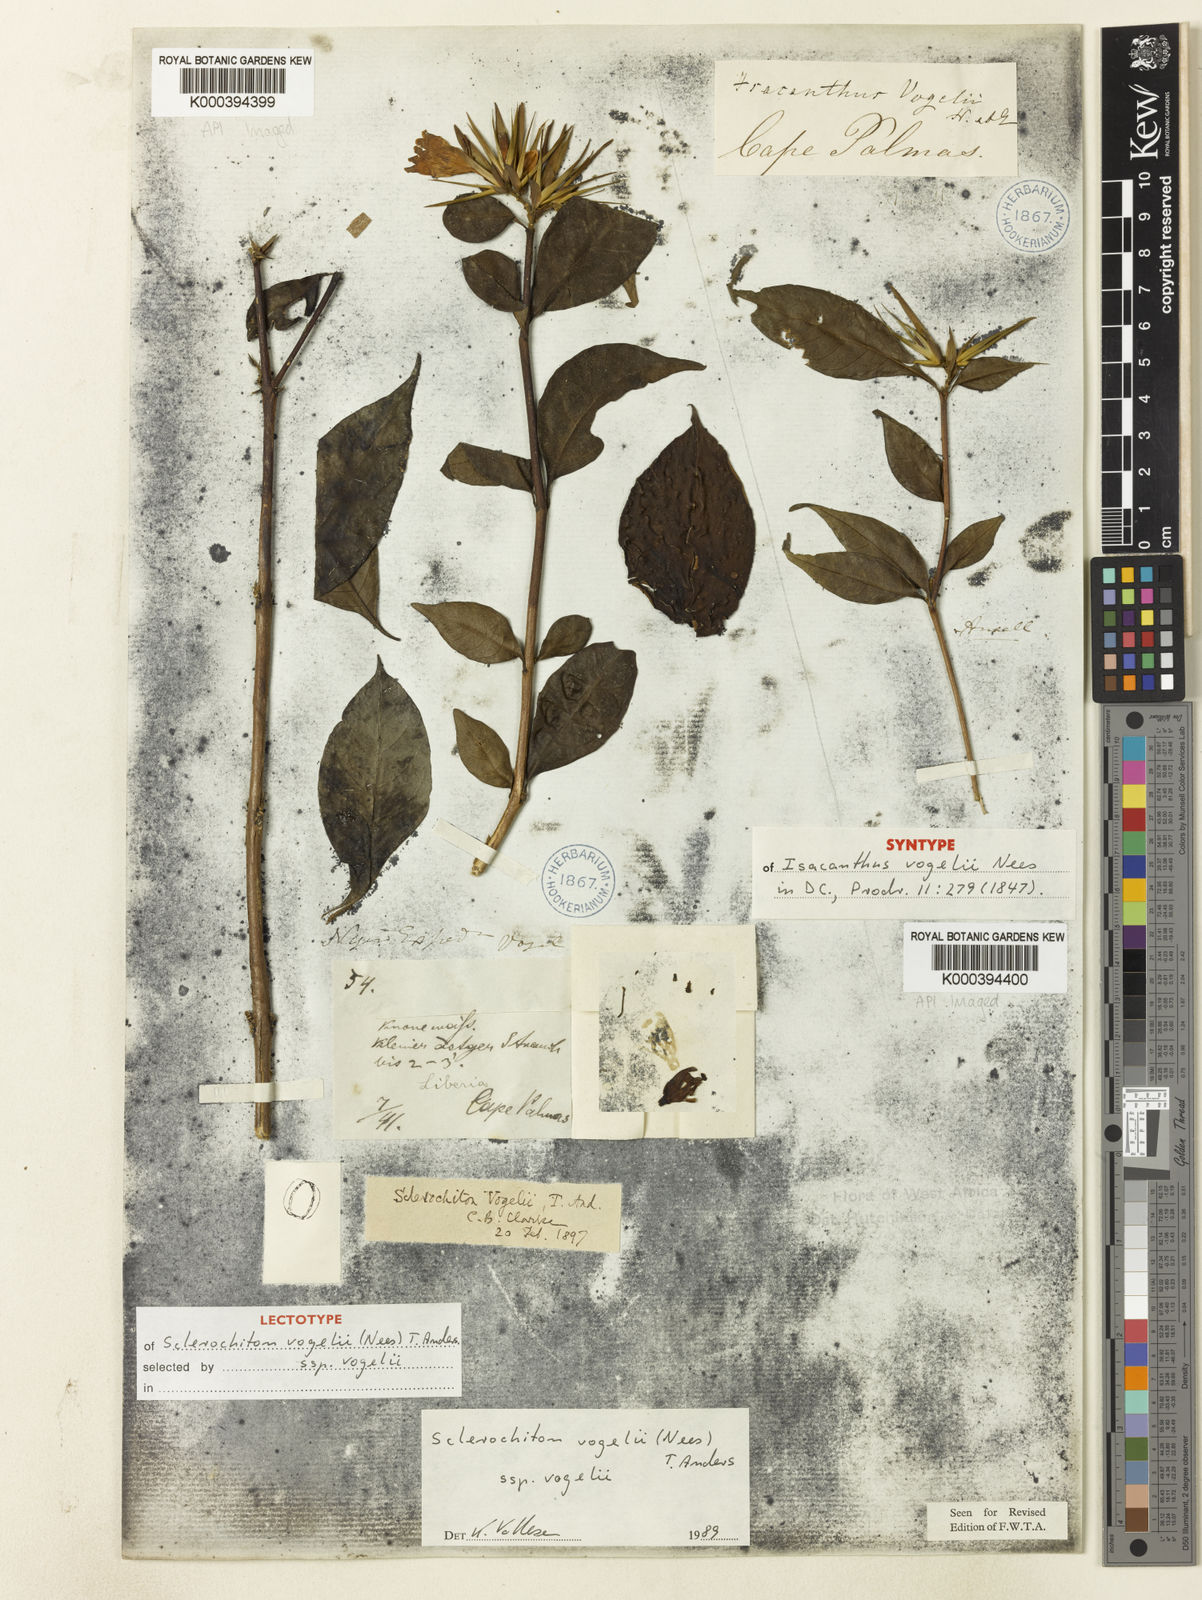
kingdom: Plantae
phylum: Tracheophyta
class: Magnoliopsida
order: Lamiales
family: Acanthaceae
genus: Sclerochiton
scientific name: Sclerochiton vogelii
